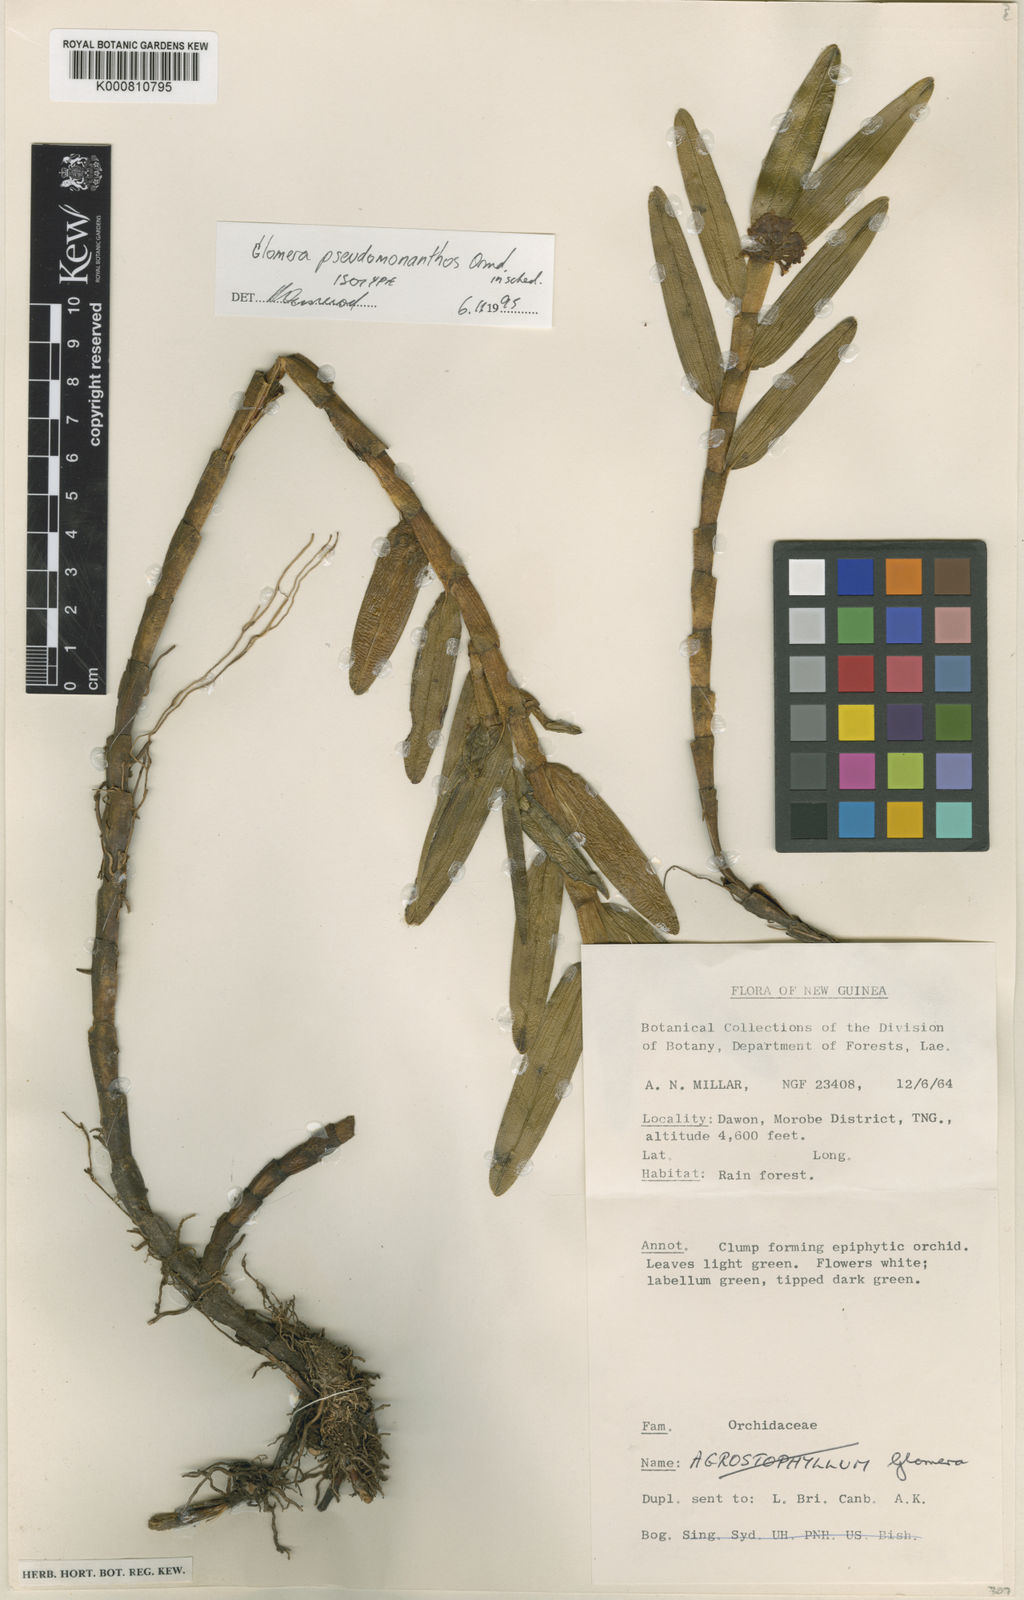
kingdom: Plantae
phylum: Tracheophyta
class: Liliopsida
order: Asparagales
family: Orchidaceae
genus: Glomera
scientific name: Glomera pseudomonanthos
